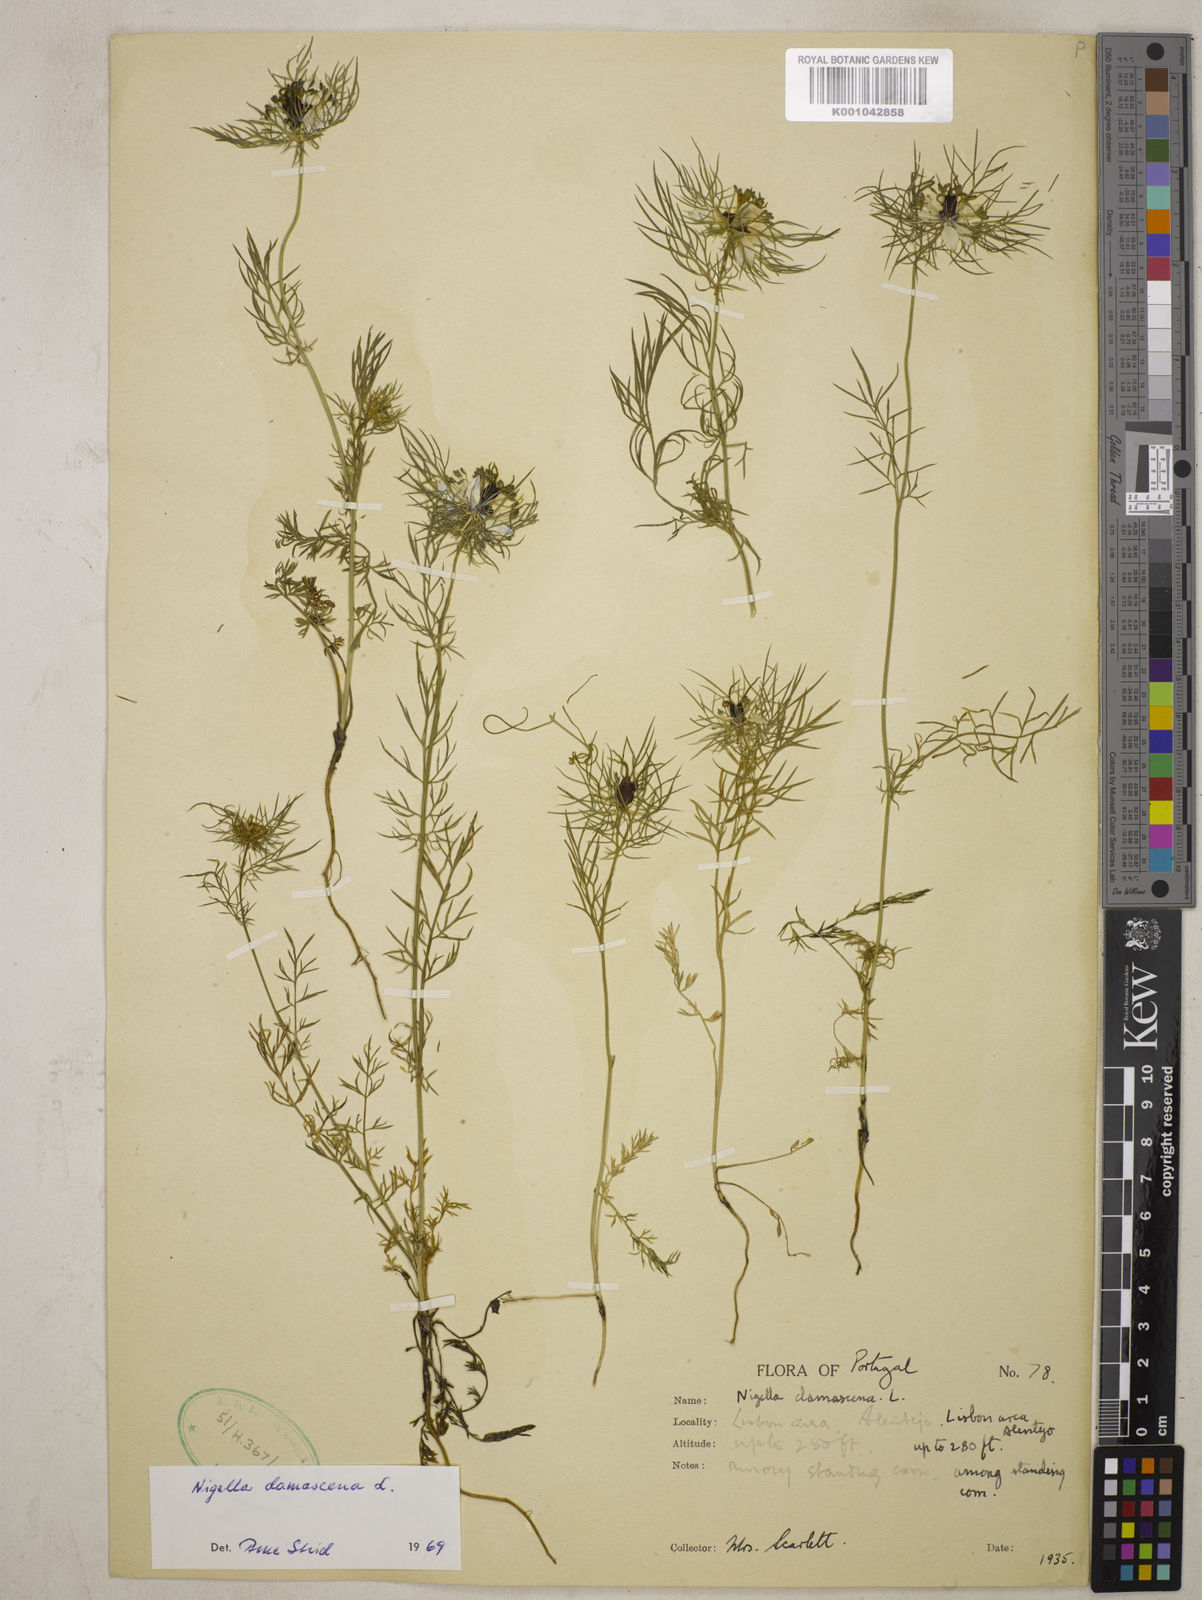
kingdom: Plantae
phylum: Tracheophyta
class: Magnoliopsida
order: Ranunculales
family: Ranunculaceae
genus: Nigella
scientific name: Nigella damascena
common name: Love-in-a-mist
